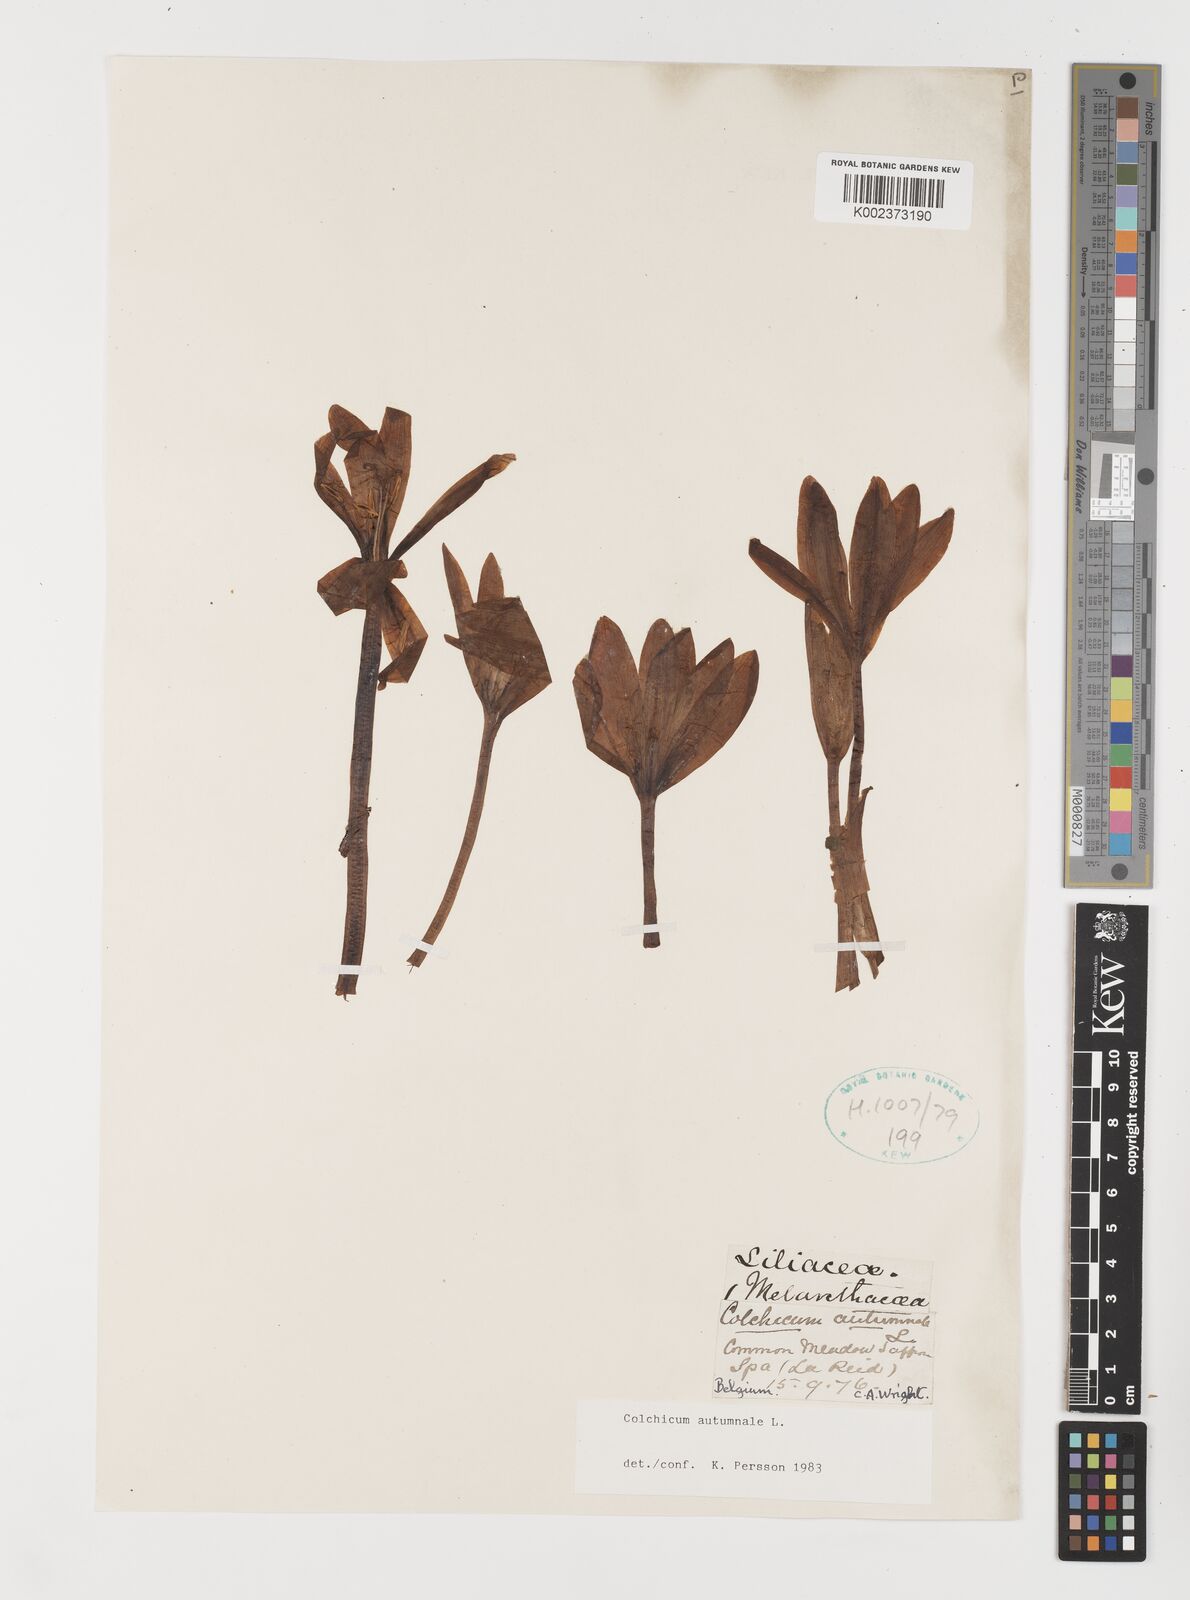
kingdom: Plantae
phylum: Tracheophyta
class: Liliopsida
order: Liliales
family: Colchicaceae
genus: Colchicum
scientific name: Colchicum autumnale
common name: Autumn crocus
